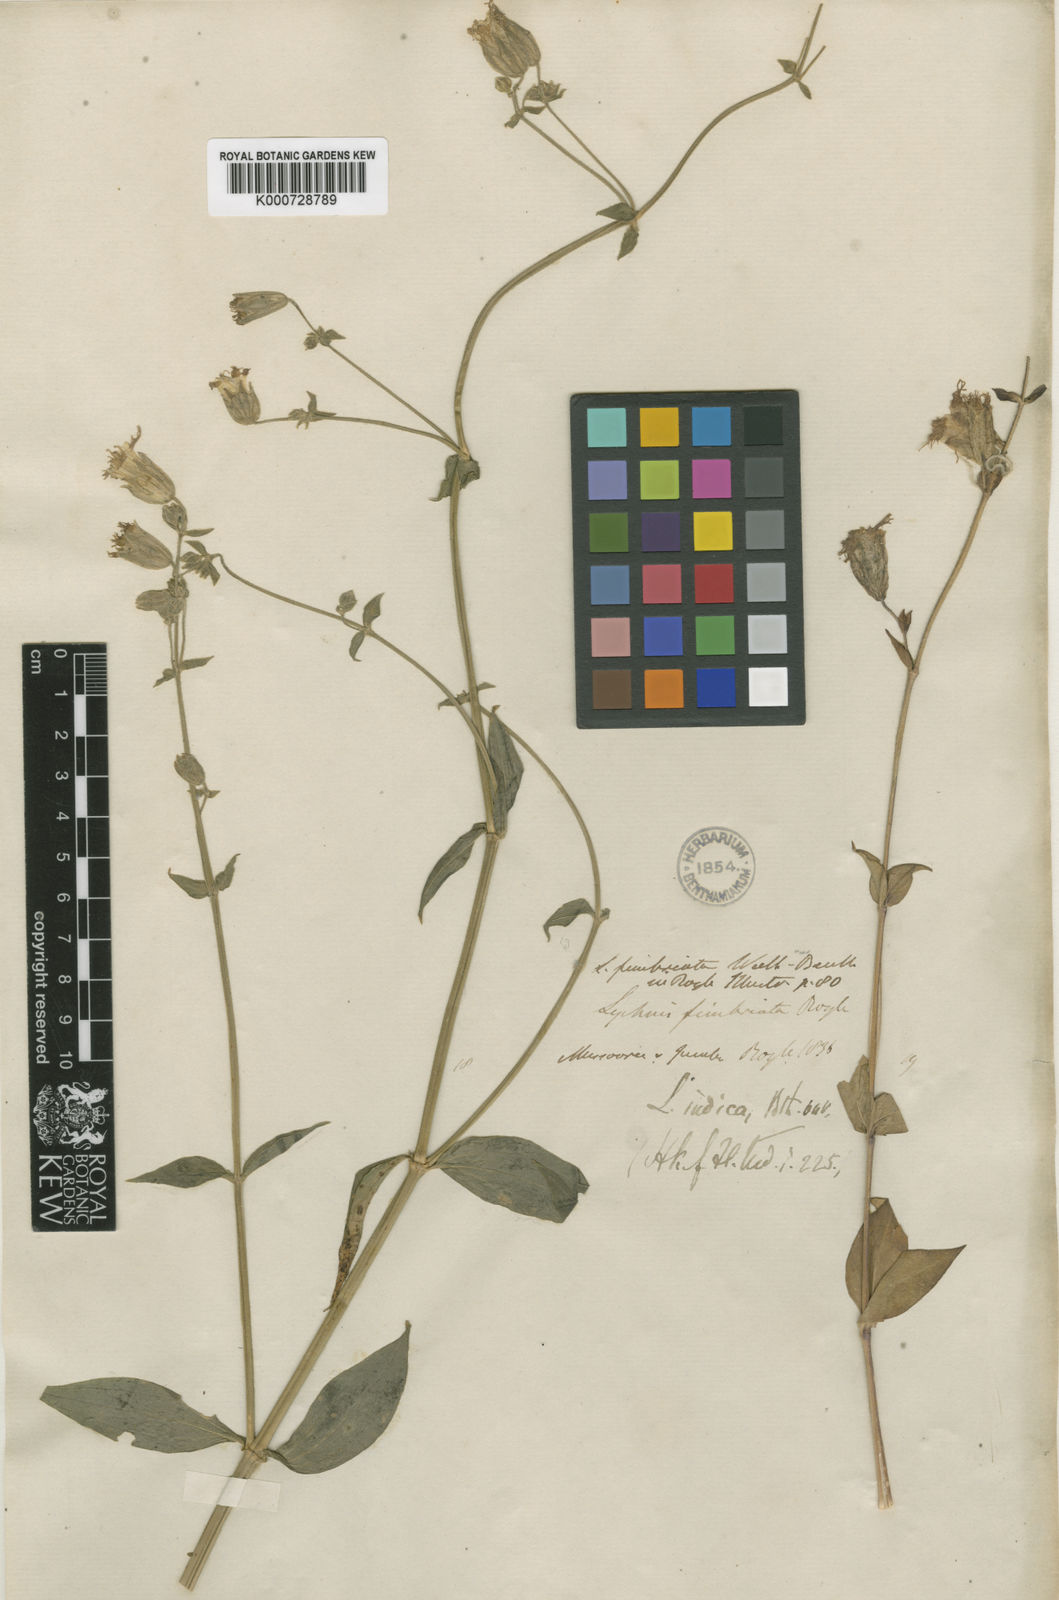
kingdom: Plantae
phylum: Tracheophyta
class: Magnoliopsida
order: Caryophyllales
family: Caryophyllaceae
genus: Silene
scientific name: Silene edgeworthii
